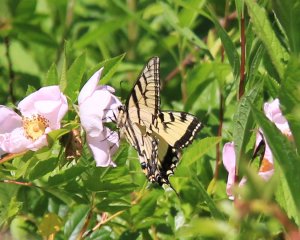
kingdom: Animalia
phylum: Arthropoda
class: Insecta
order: Lepidoptera
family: Papilionidae
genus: Pterourus
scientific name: Pterourus canadensis
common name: Canadian Tiger Swallowtail
